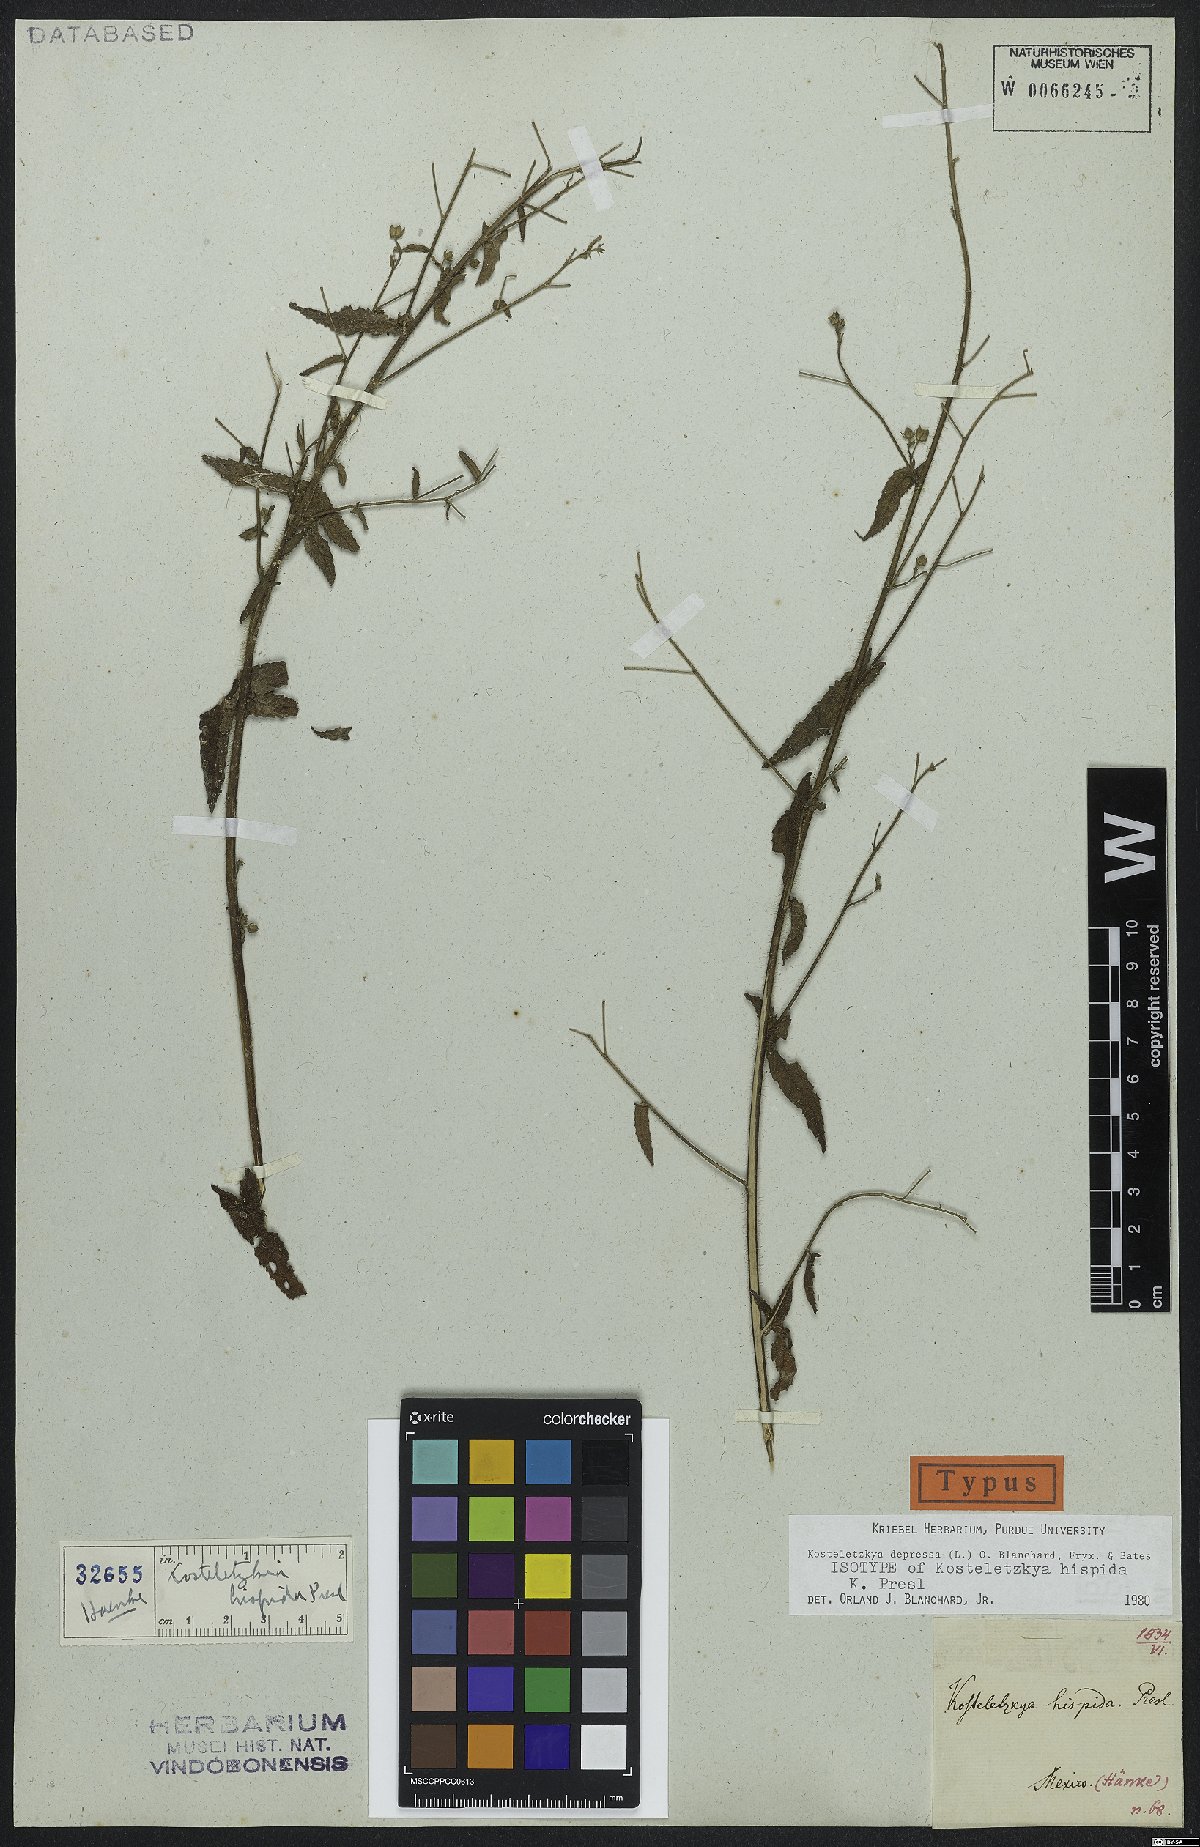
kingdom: Plantae
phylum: Tracheophyta
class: Magnoliopsida
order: Malvales
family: Malvaceae
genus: Kosteletzkya
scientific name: Kosteletzkya depressa
